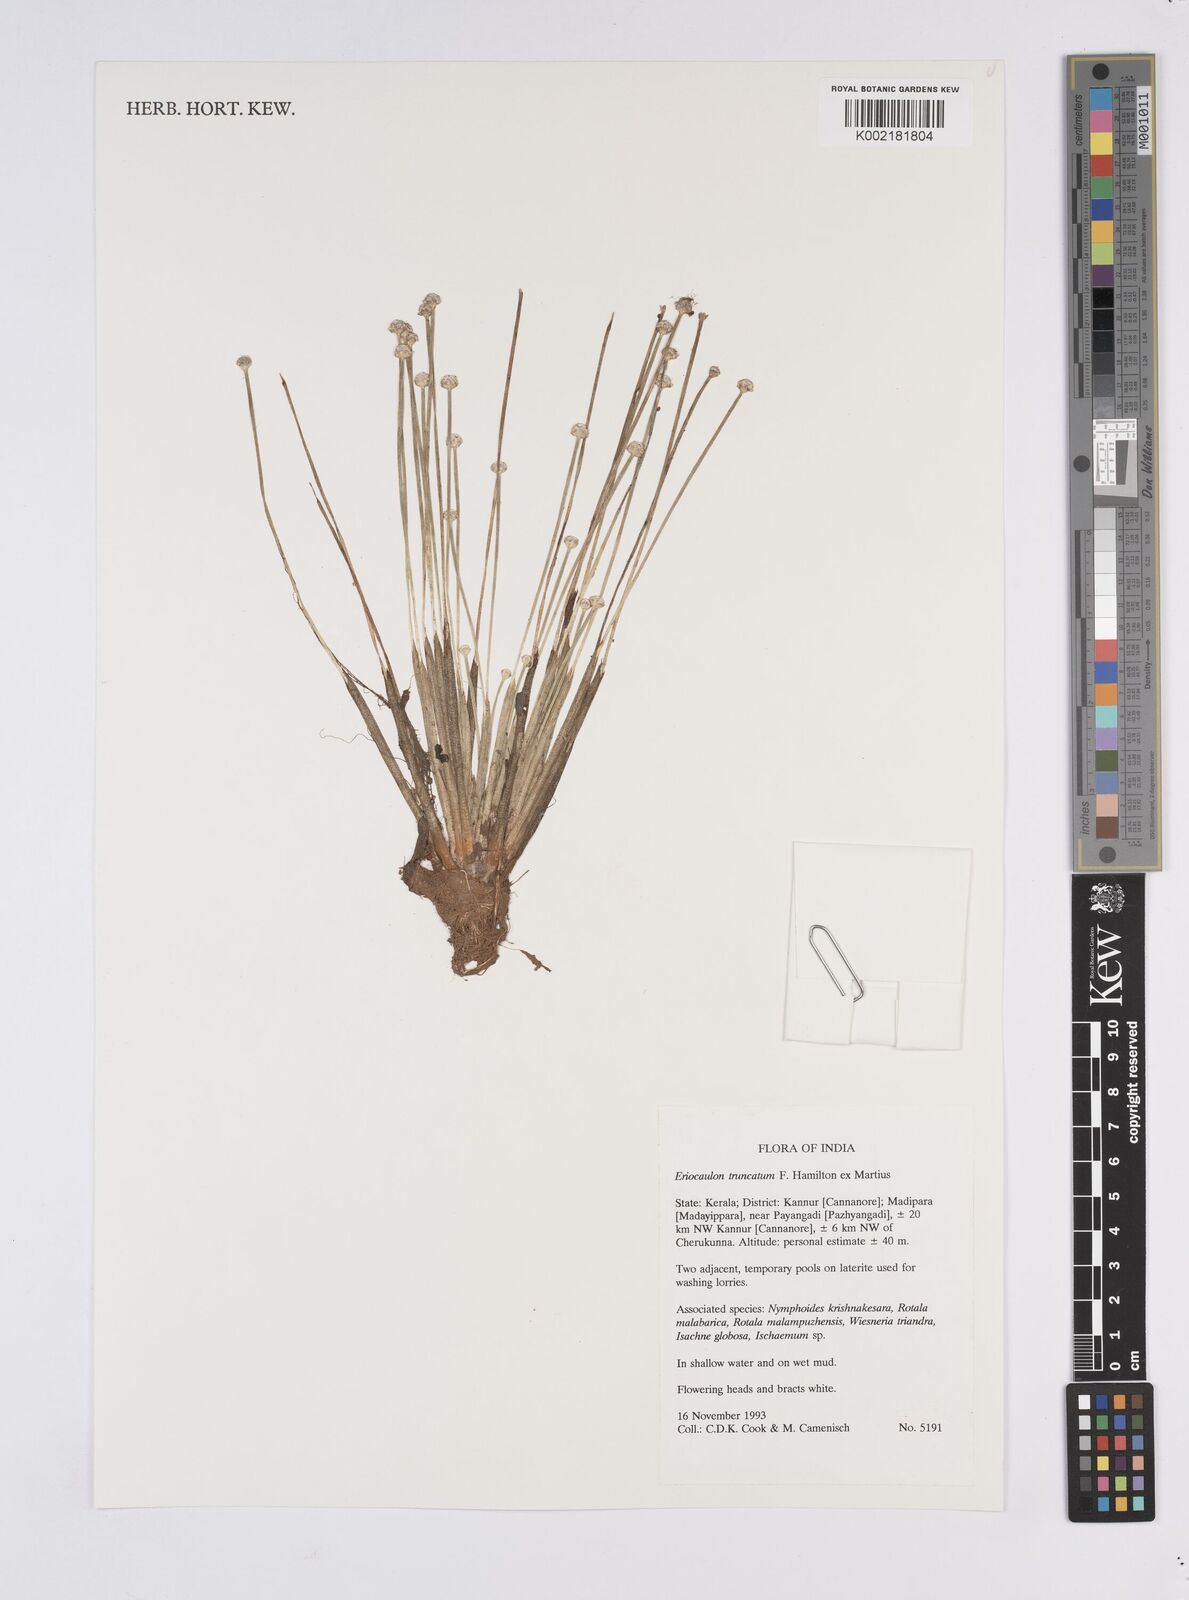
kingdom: Plantae
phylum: Tracheophyta
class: Liliopsida
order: Poales
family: Eriocaulaceae
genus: Eriocaulon
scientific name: Eriocaulon truncatum
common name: Short pipe-wort
